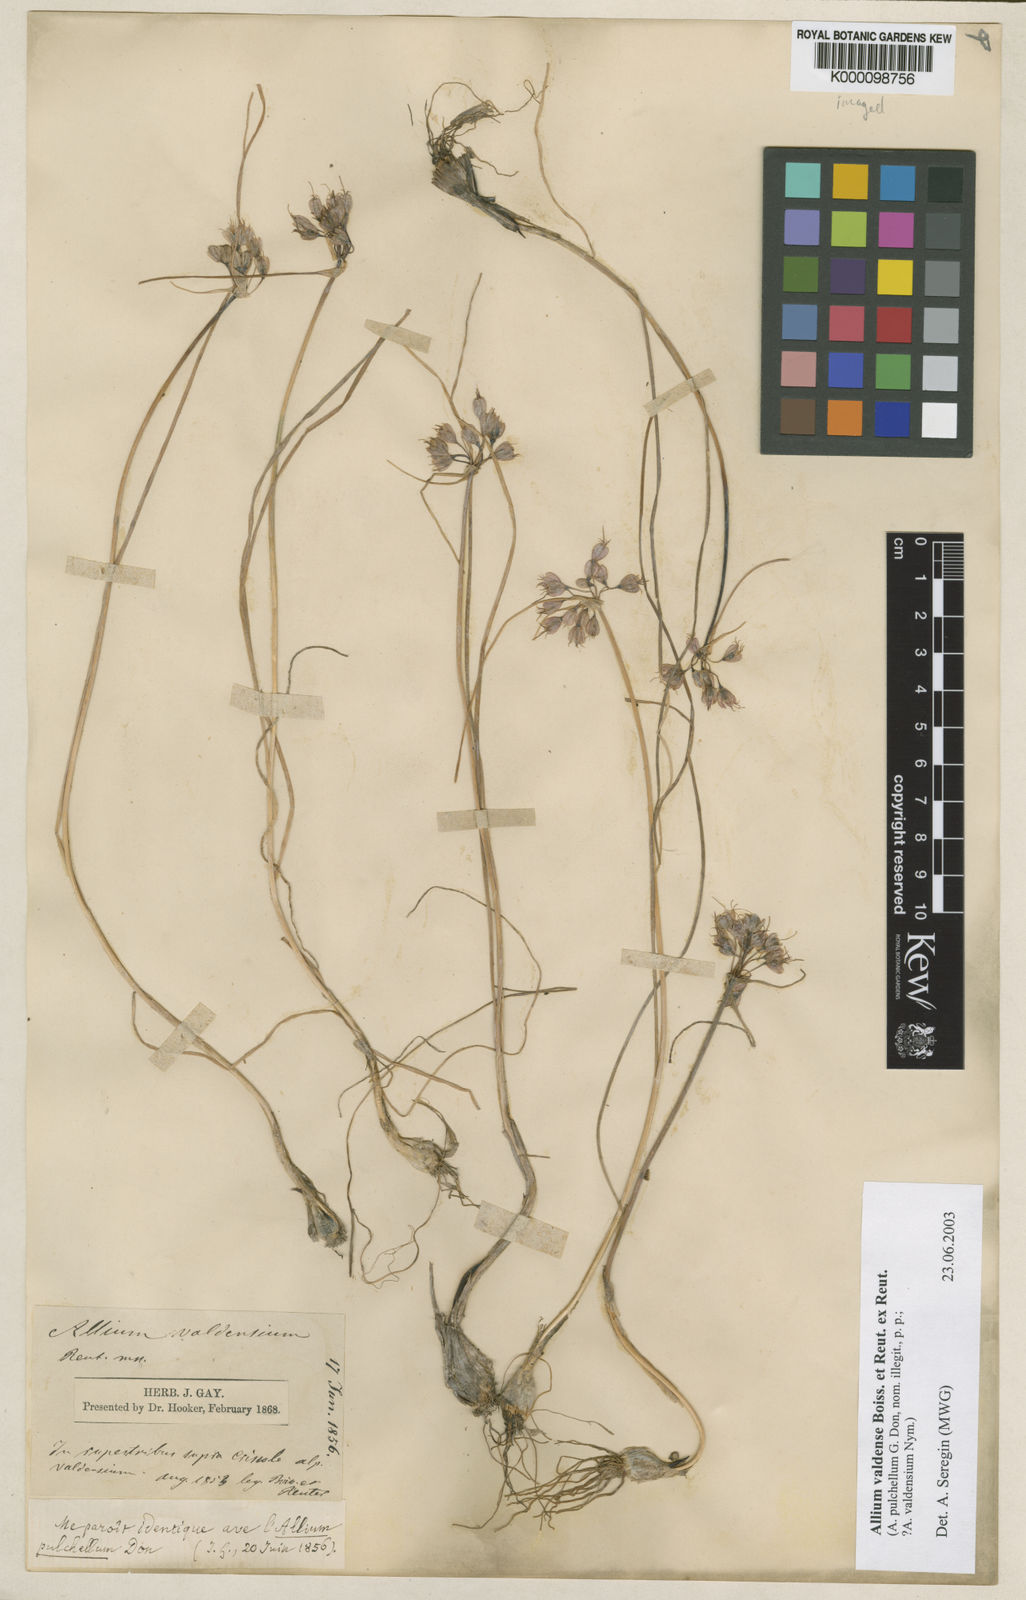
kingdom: Plantae
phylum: Tracheophyta
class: Liliopsida
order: Asparagales
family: Amaryllidaceae
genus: Allium
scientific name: Allium
